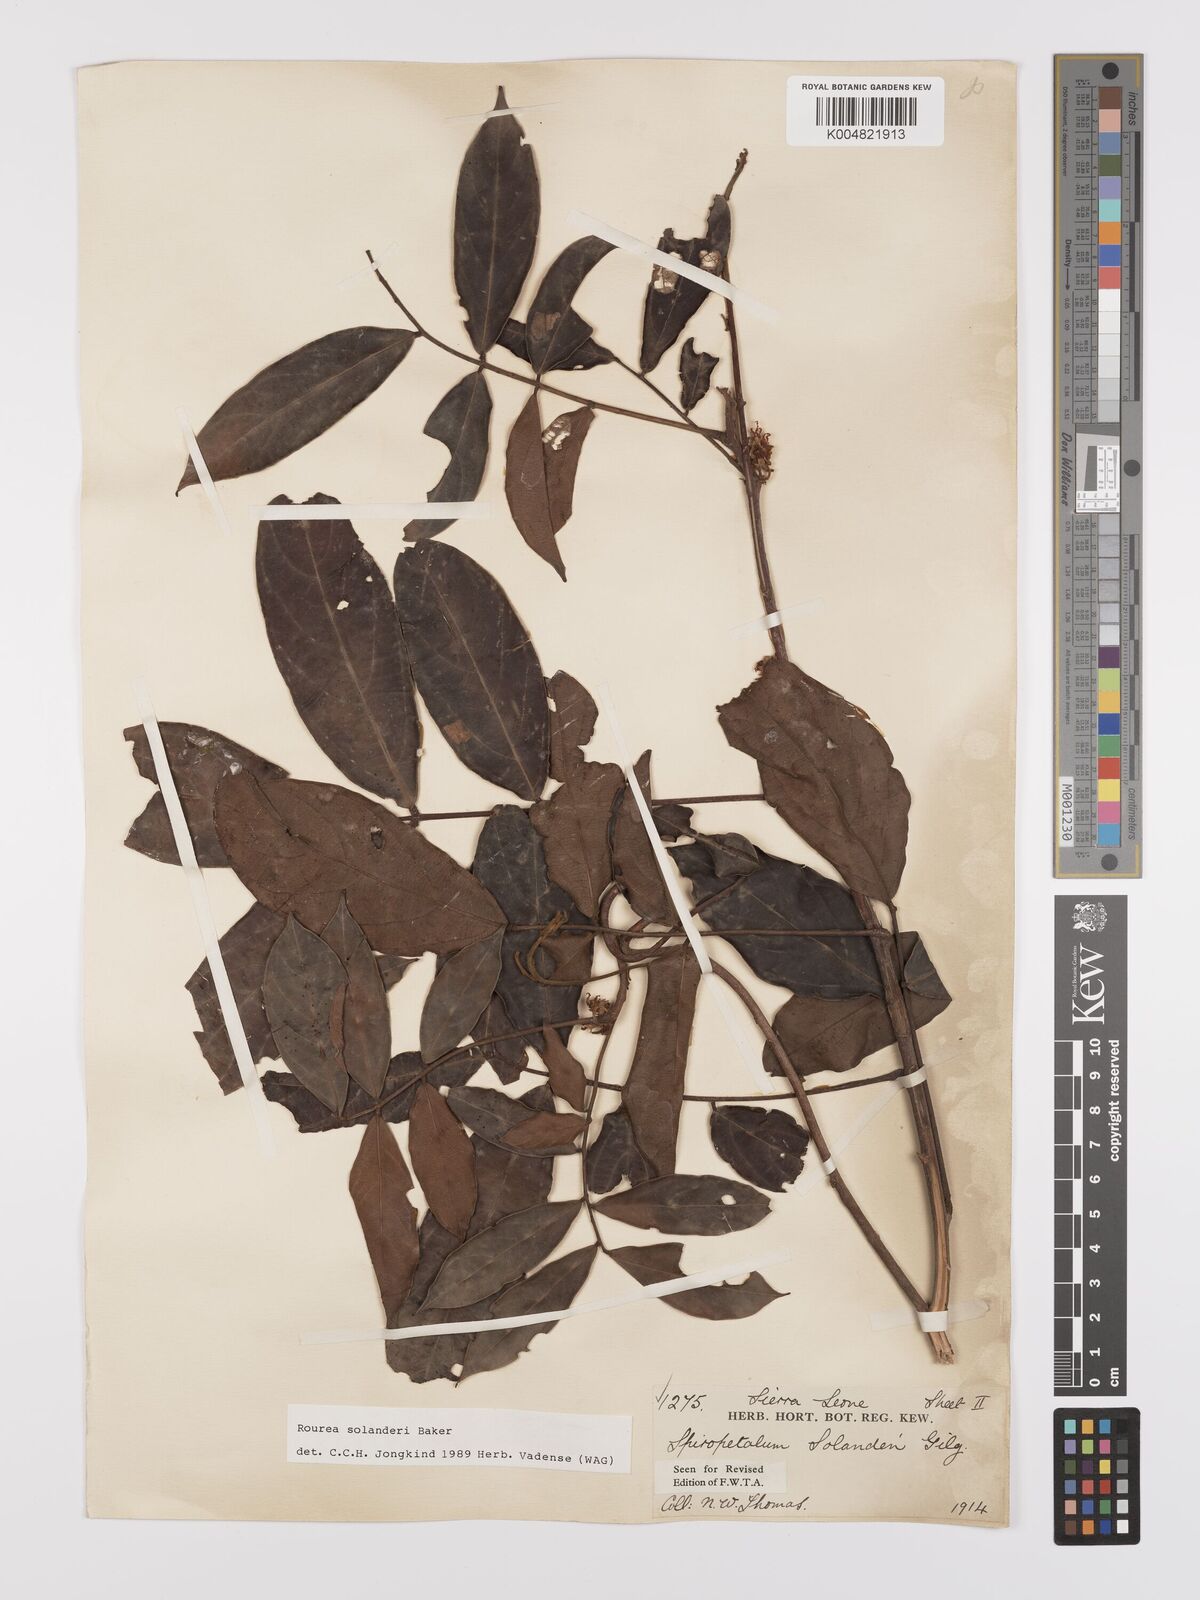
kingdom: Plantae
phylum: Tracheophyta
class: Magnoliopsida
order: Oxalidales
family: Connaraceae
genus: Rourea
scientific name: Rourea solanderi
